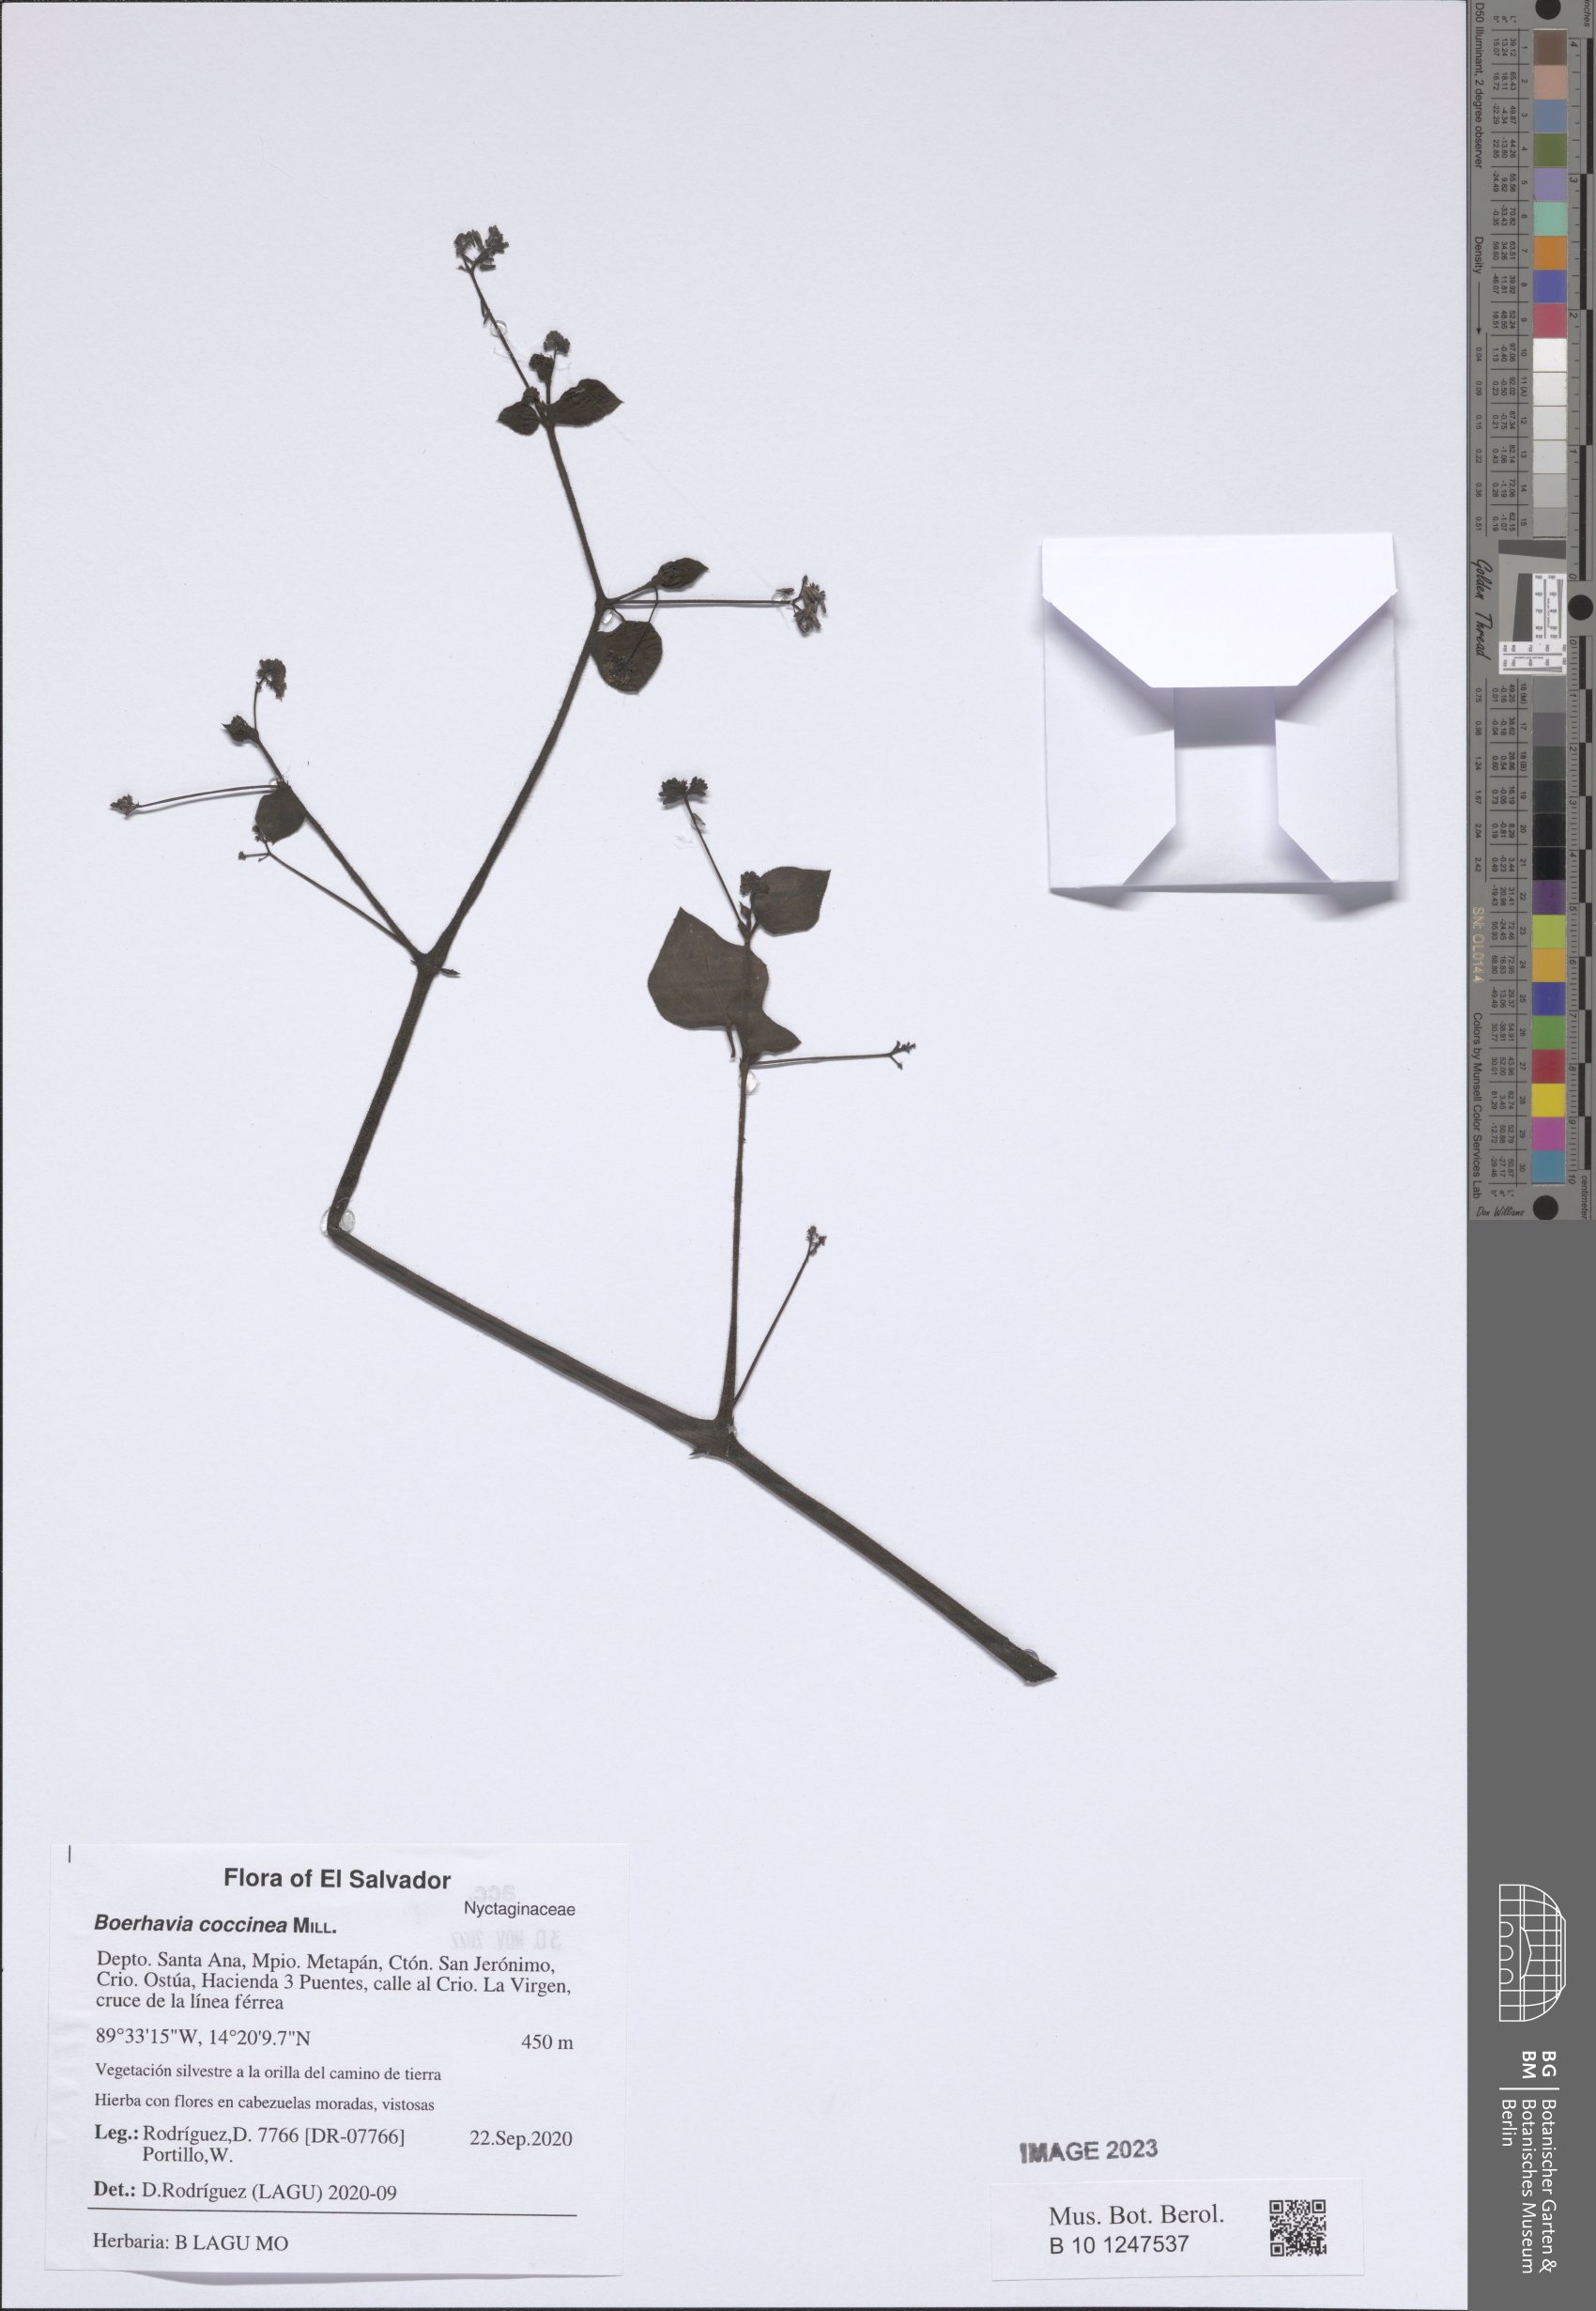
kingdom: Plantae
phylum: Tracheophyta
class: Magnoliopsida
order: Caryophyllales
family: Nyctaginaceae
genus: Boerhavia
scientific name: Boerhavia coccinea
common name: Scarlet spiderling
